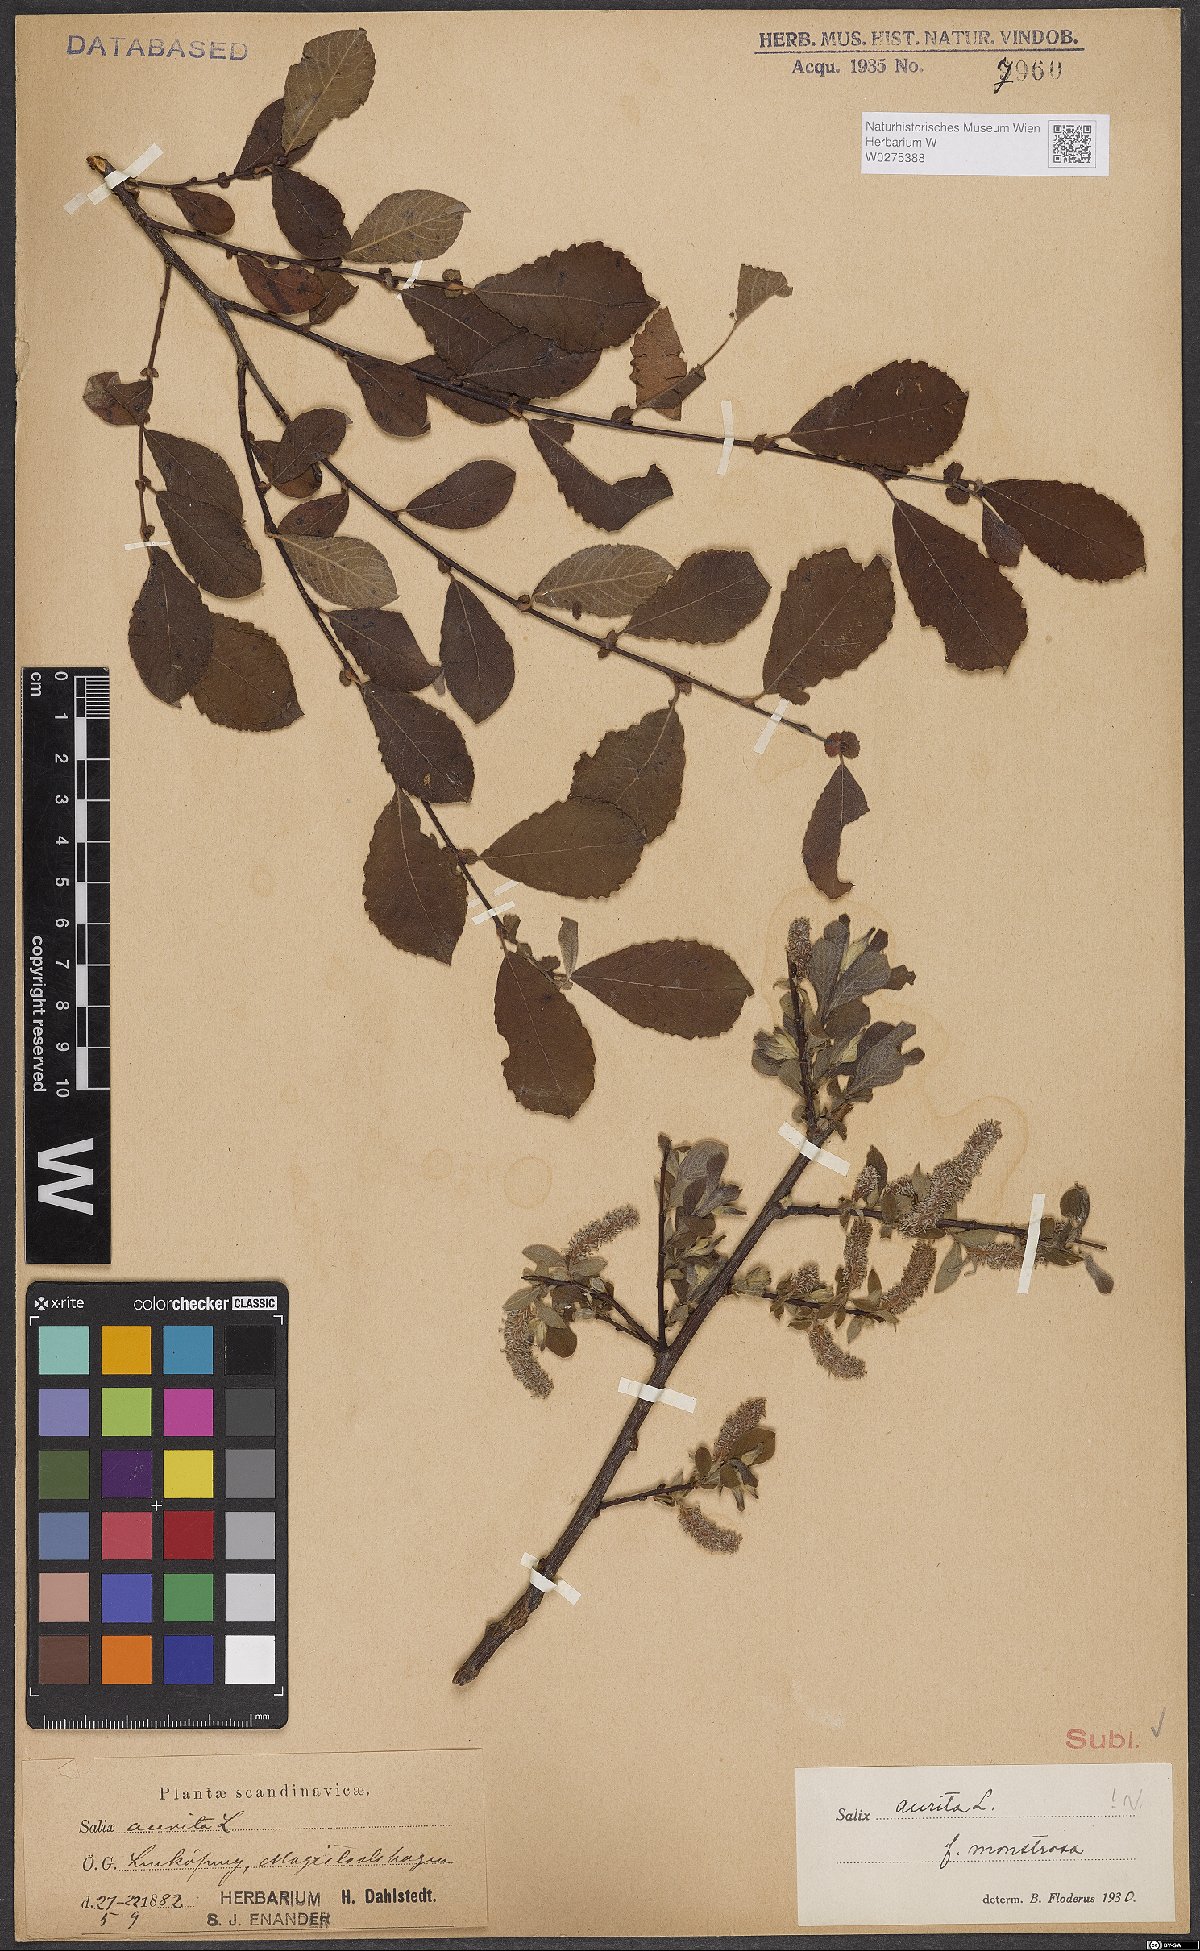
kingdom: Plantae
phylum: Tracheophyta
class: Magnoliopsida
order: Malpighiales
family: Salicaceae
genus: Salix
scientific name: Salix aurita
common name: Eared willow
